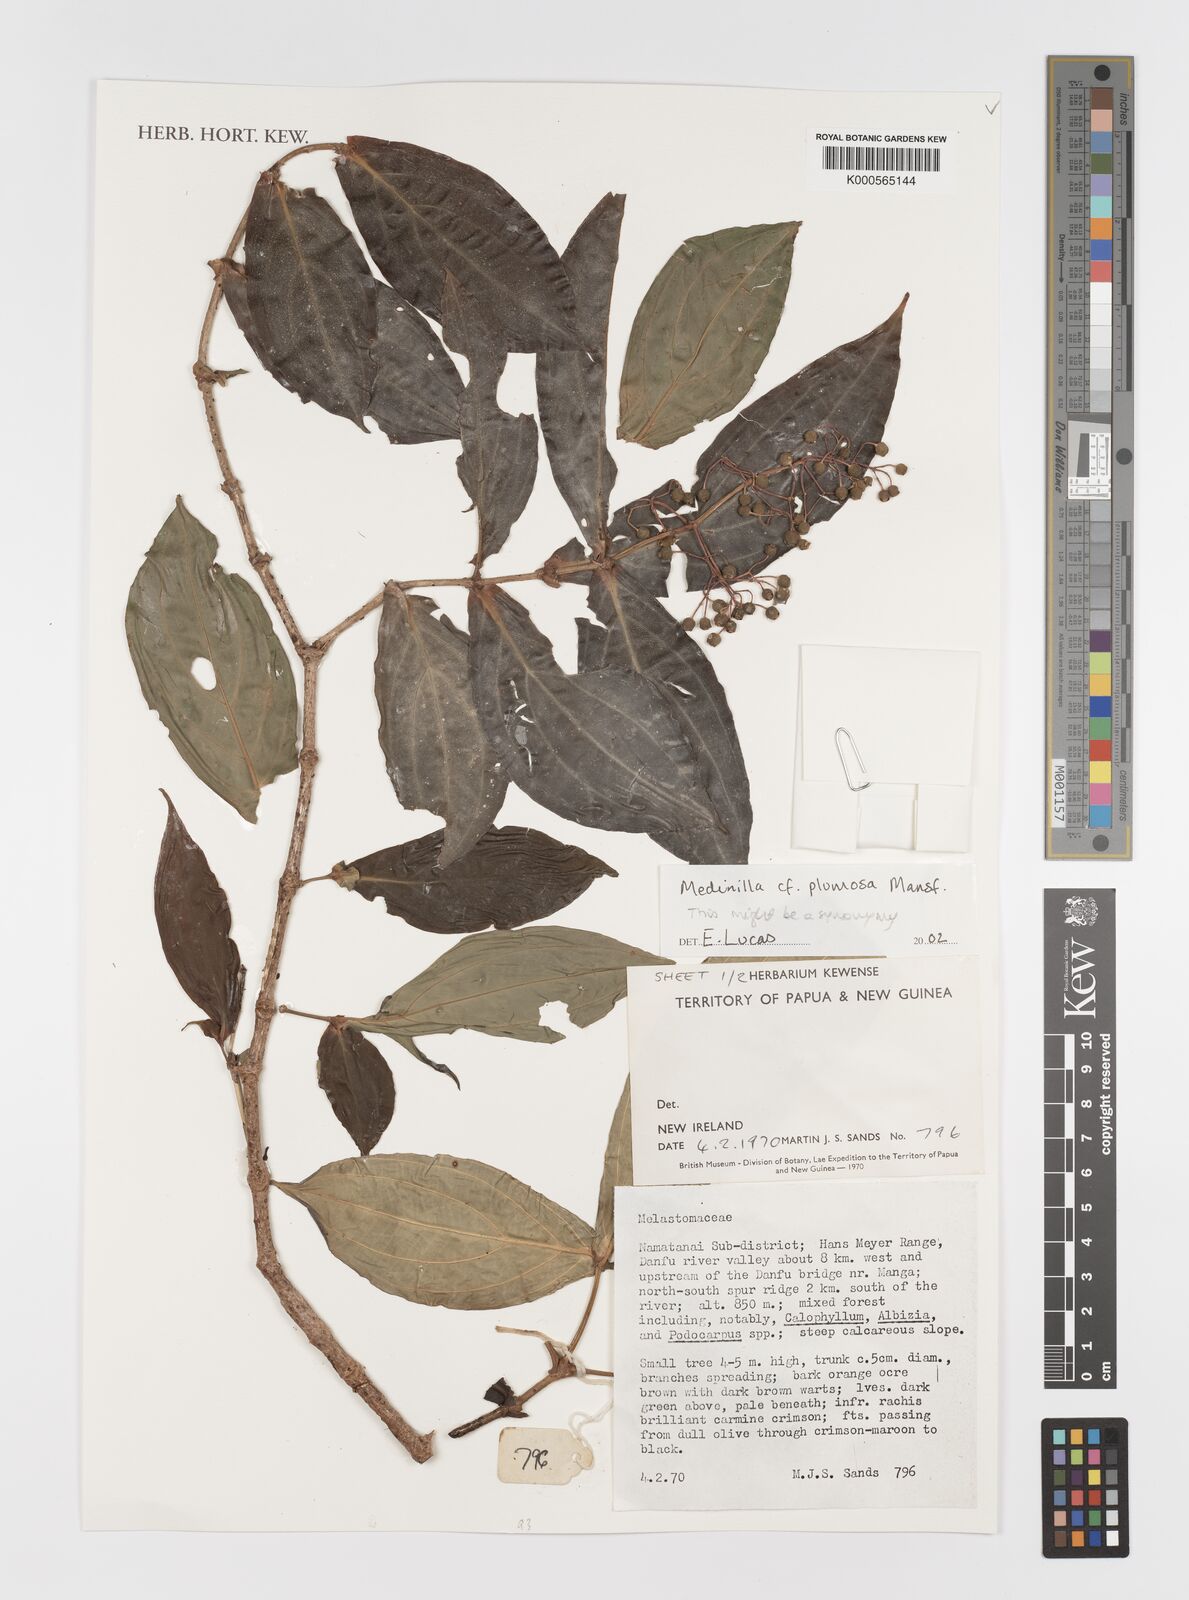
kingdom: Plantae
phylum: Tracheophyta
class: Magnoliopsida
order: Myrtales
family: Melastomataceae
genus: Medinilla
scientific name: Medinilla plumosa
